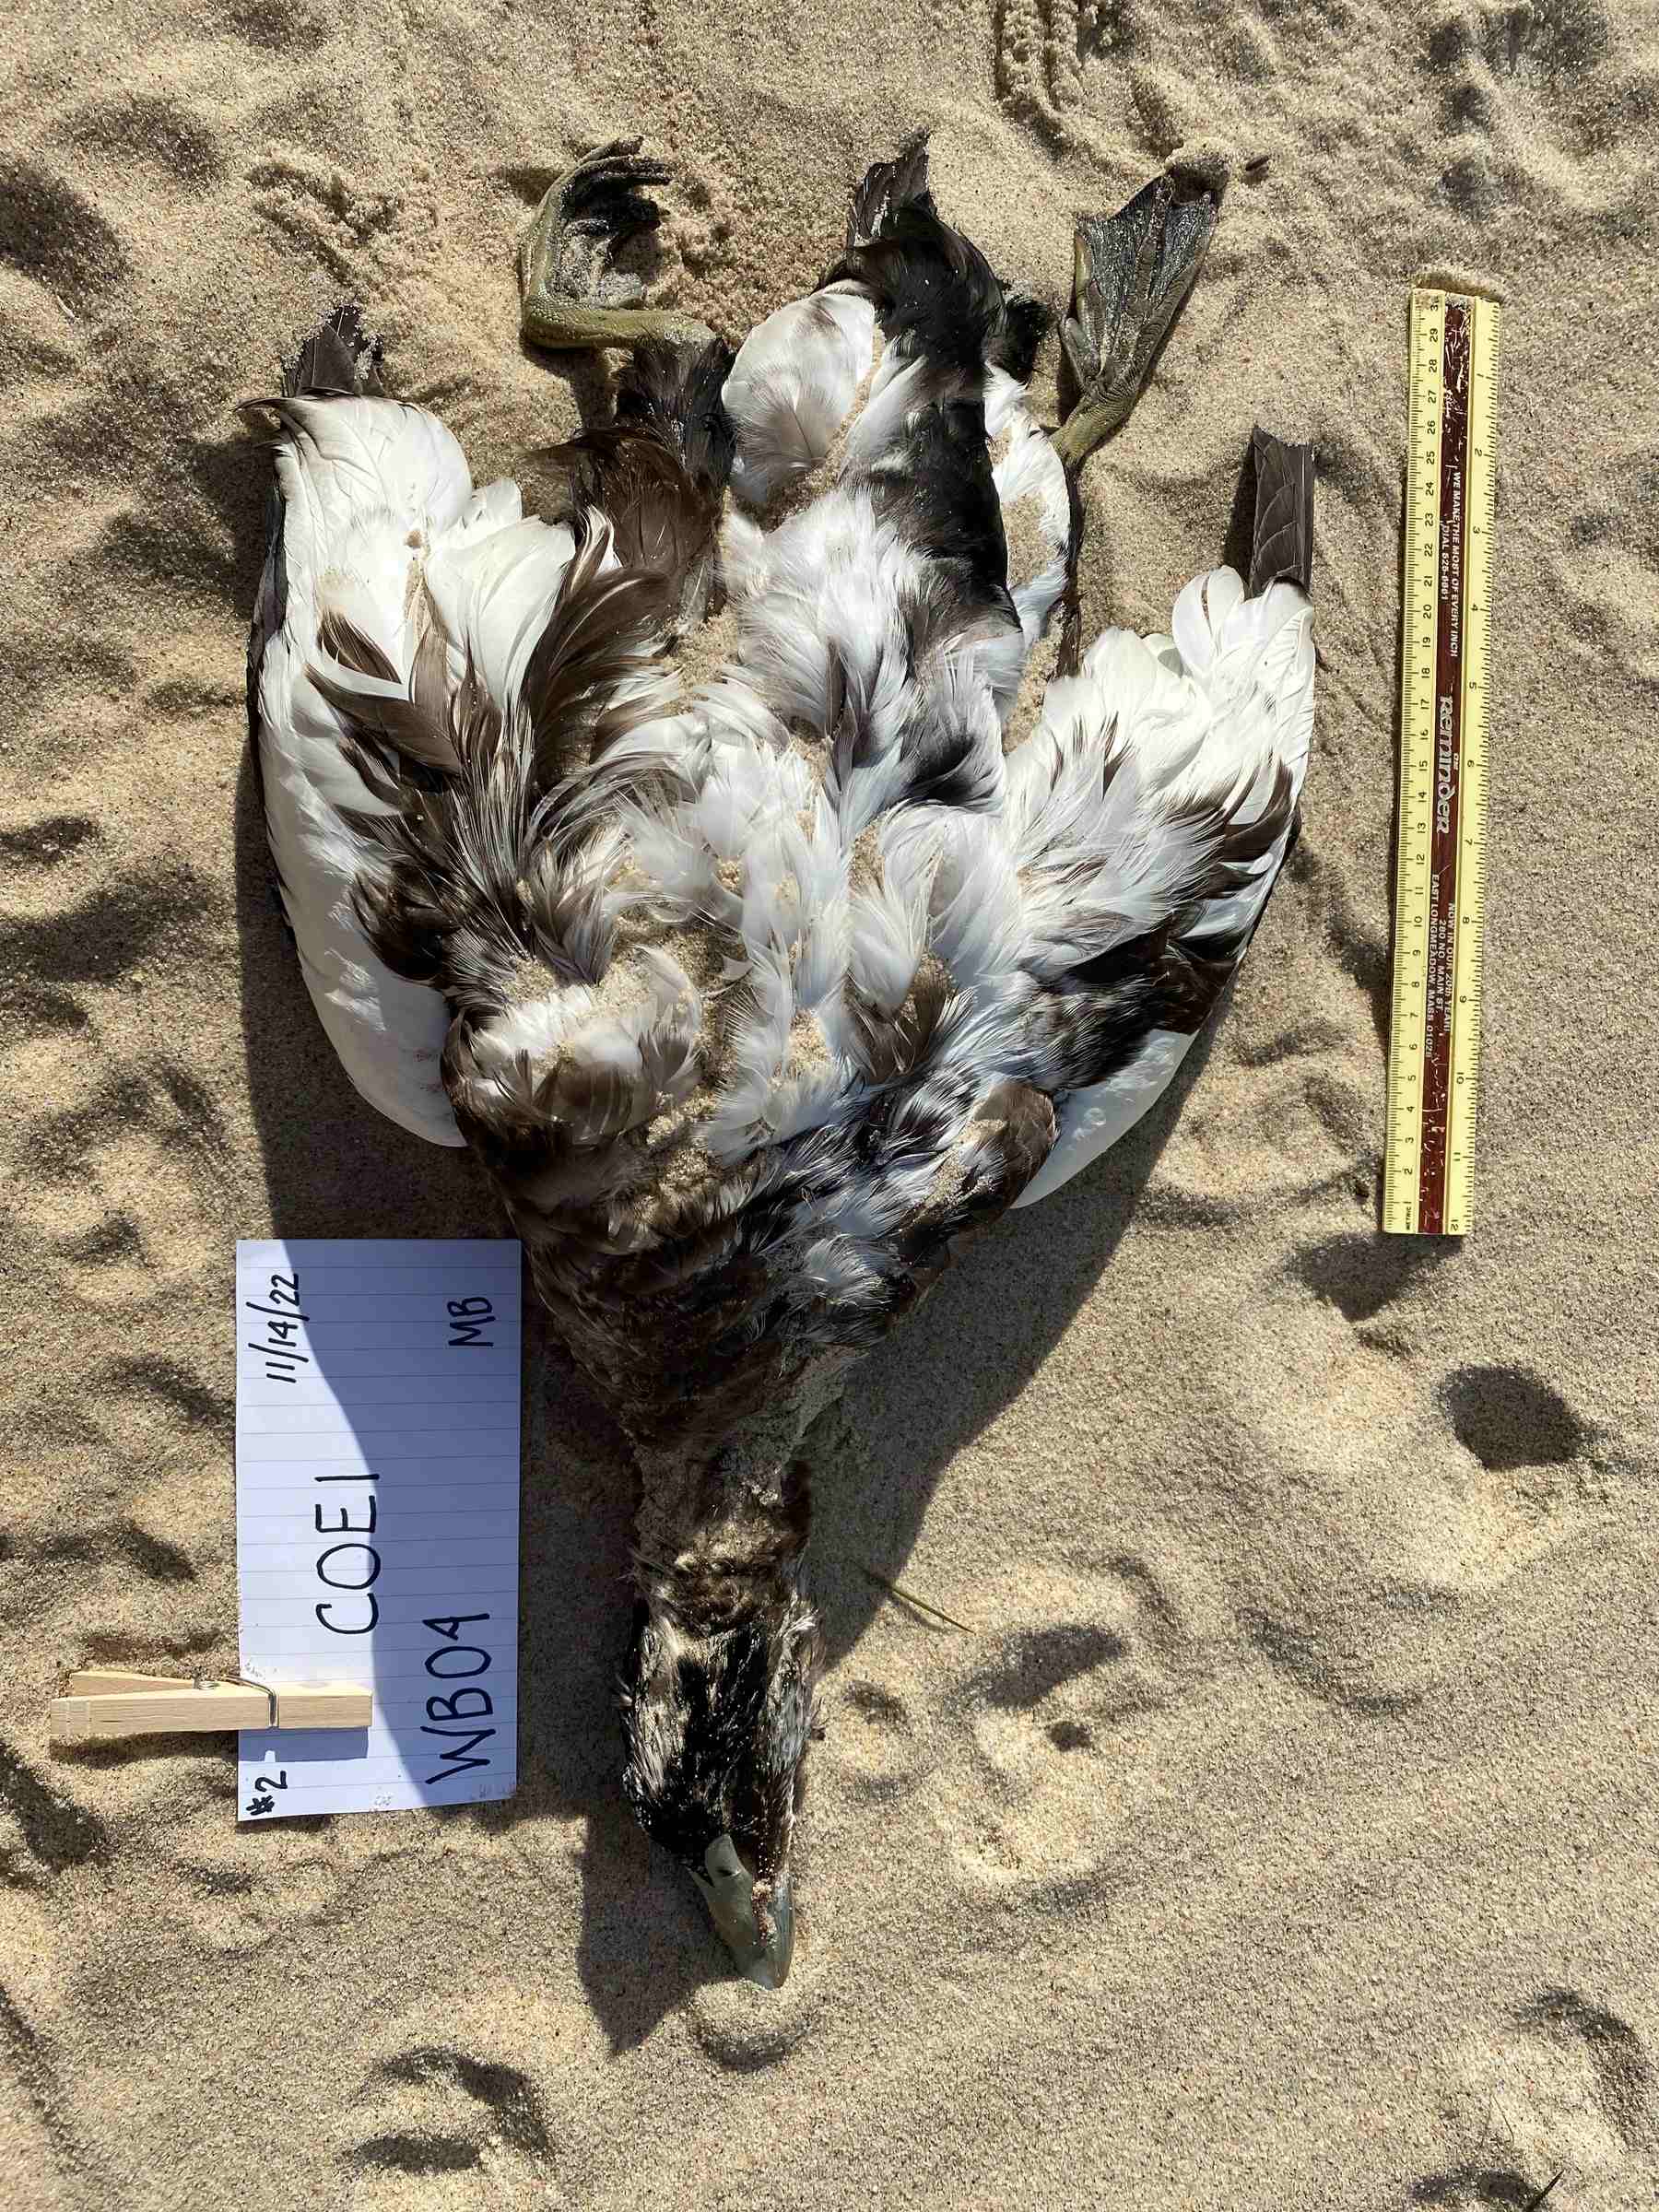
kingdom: Animalia
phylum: Chordata
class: Aves
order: Anseriformes
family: Anatidae
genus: Somateria
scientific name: Somateria mollissima
